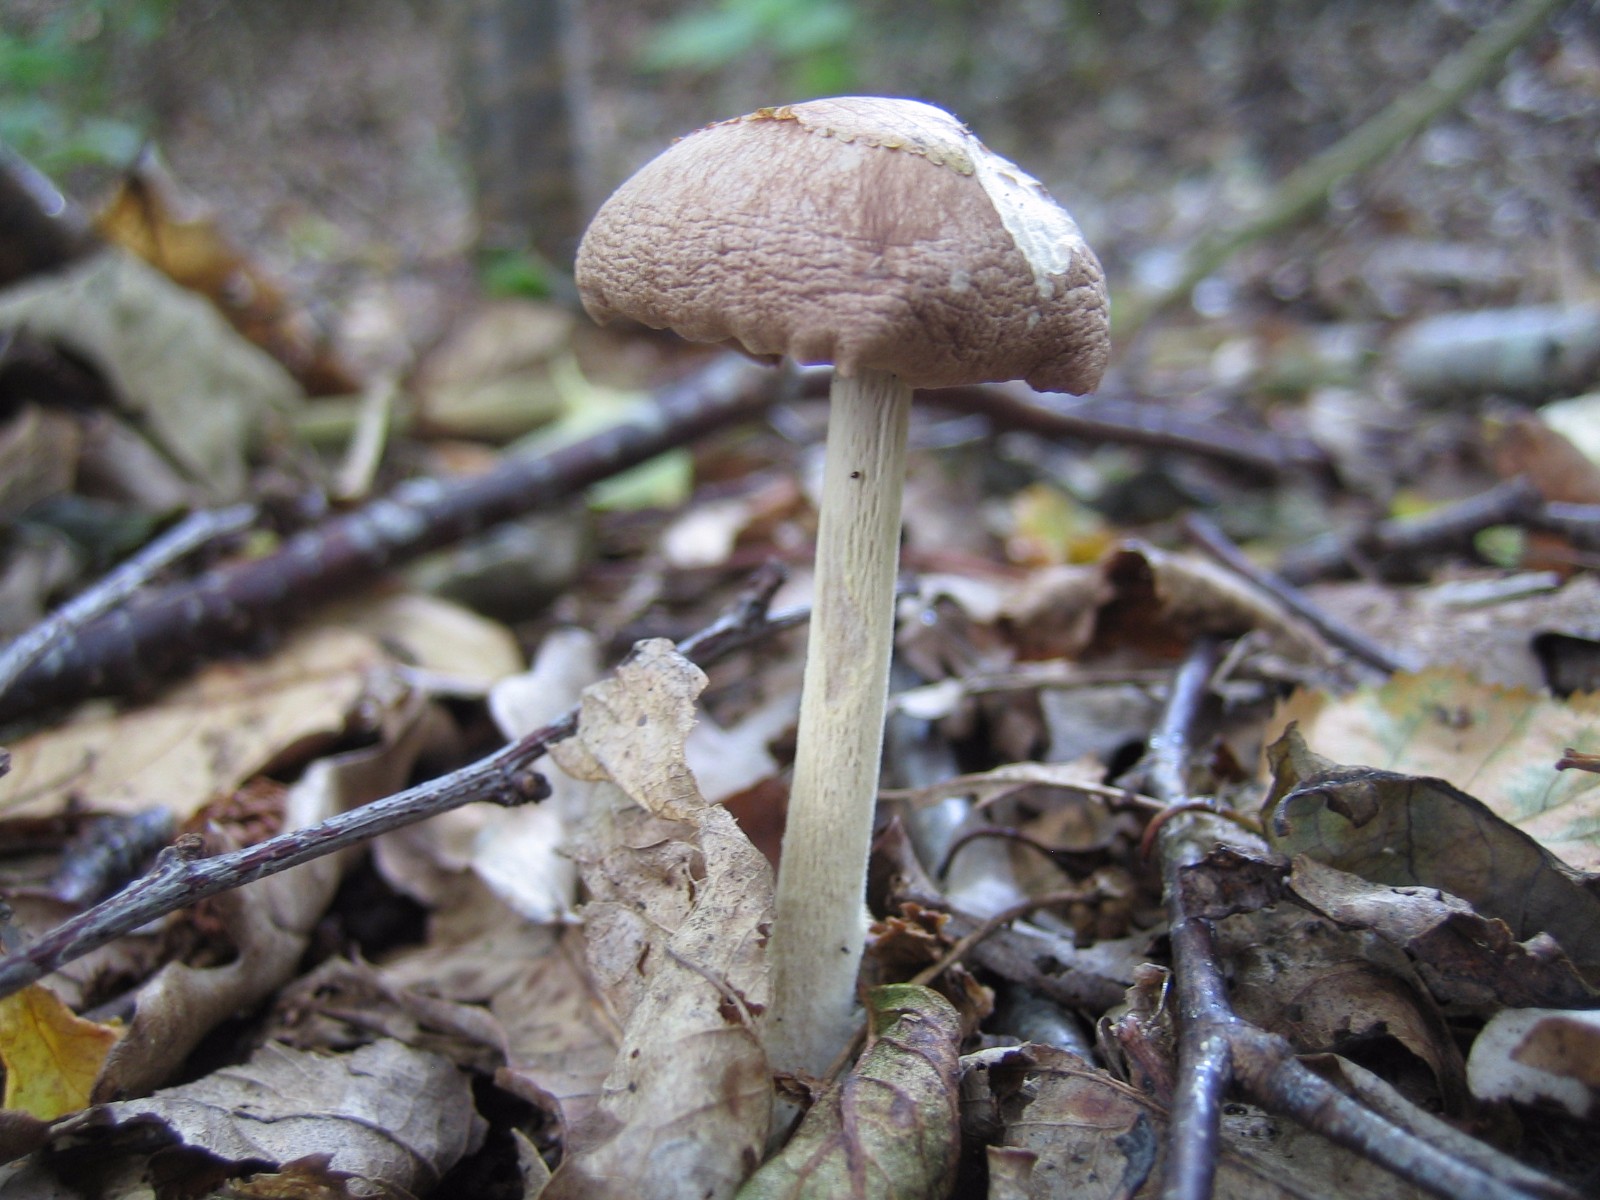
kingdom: Fungi
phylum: Basidiomycota
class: Agaricomycetes
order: Agaricales
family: Omphalotaceae
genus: Collybiopsis
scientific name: Collybiopsis peronata
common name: bestøvlet fladhat
